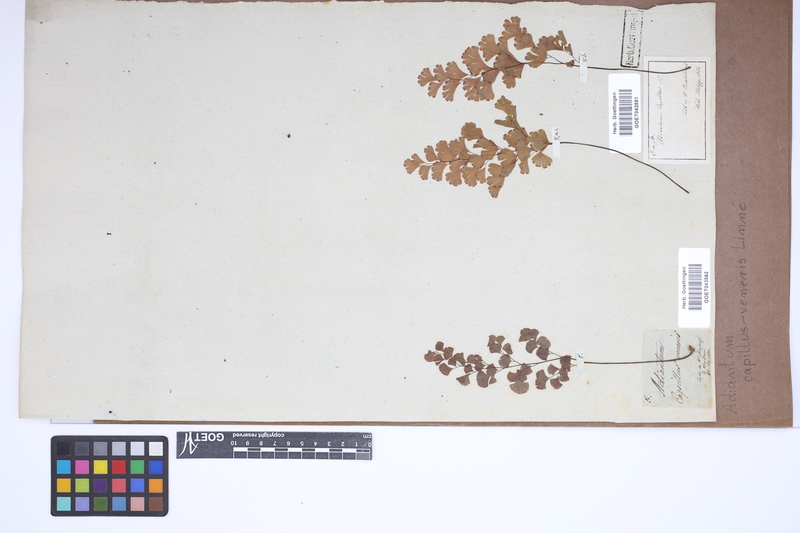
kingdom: Plantae
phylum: Tracheophyta
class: Polypodiopsida
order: Polypodiales
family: Pteridaceae
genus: Adiantum
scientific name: Adiantum capillus-veneris
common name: Maidenhair fern
